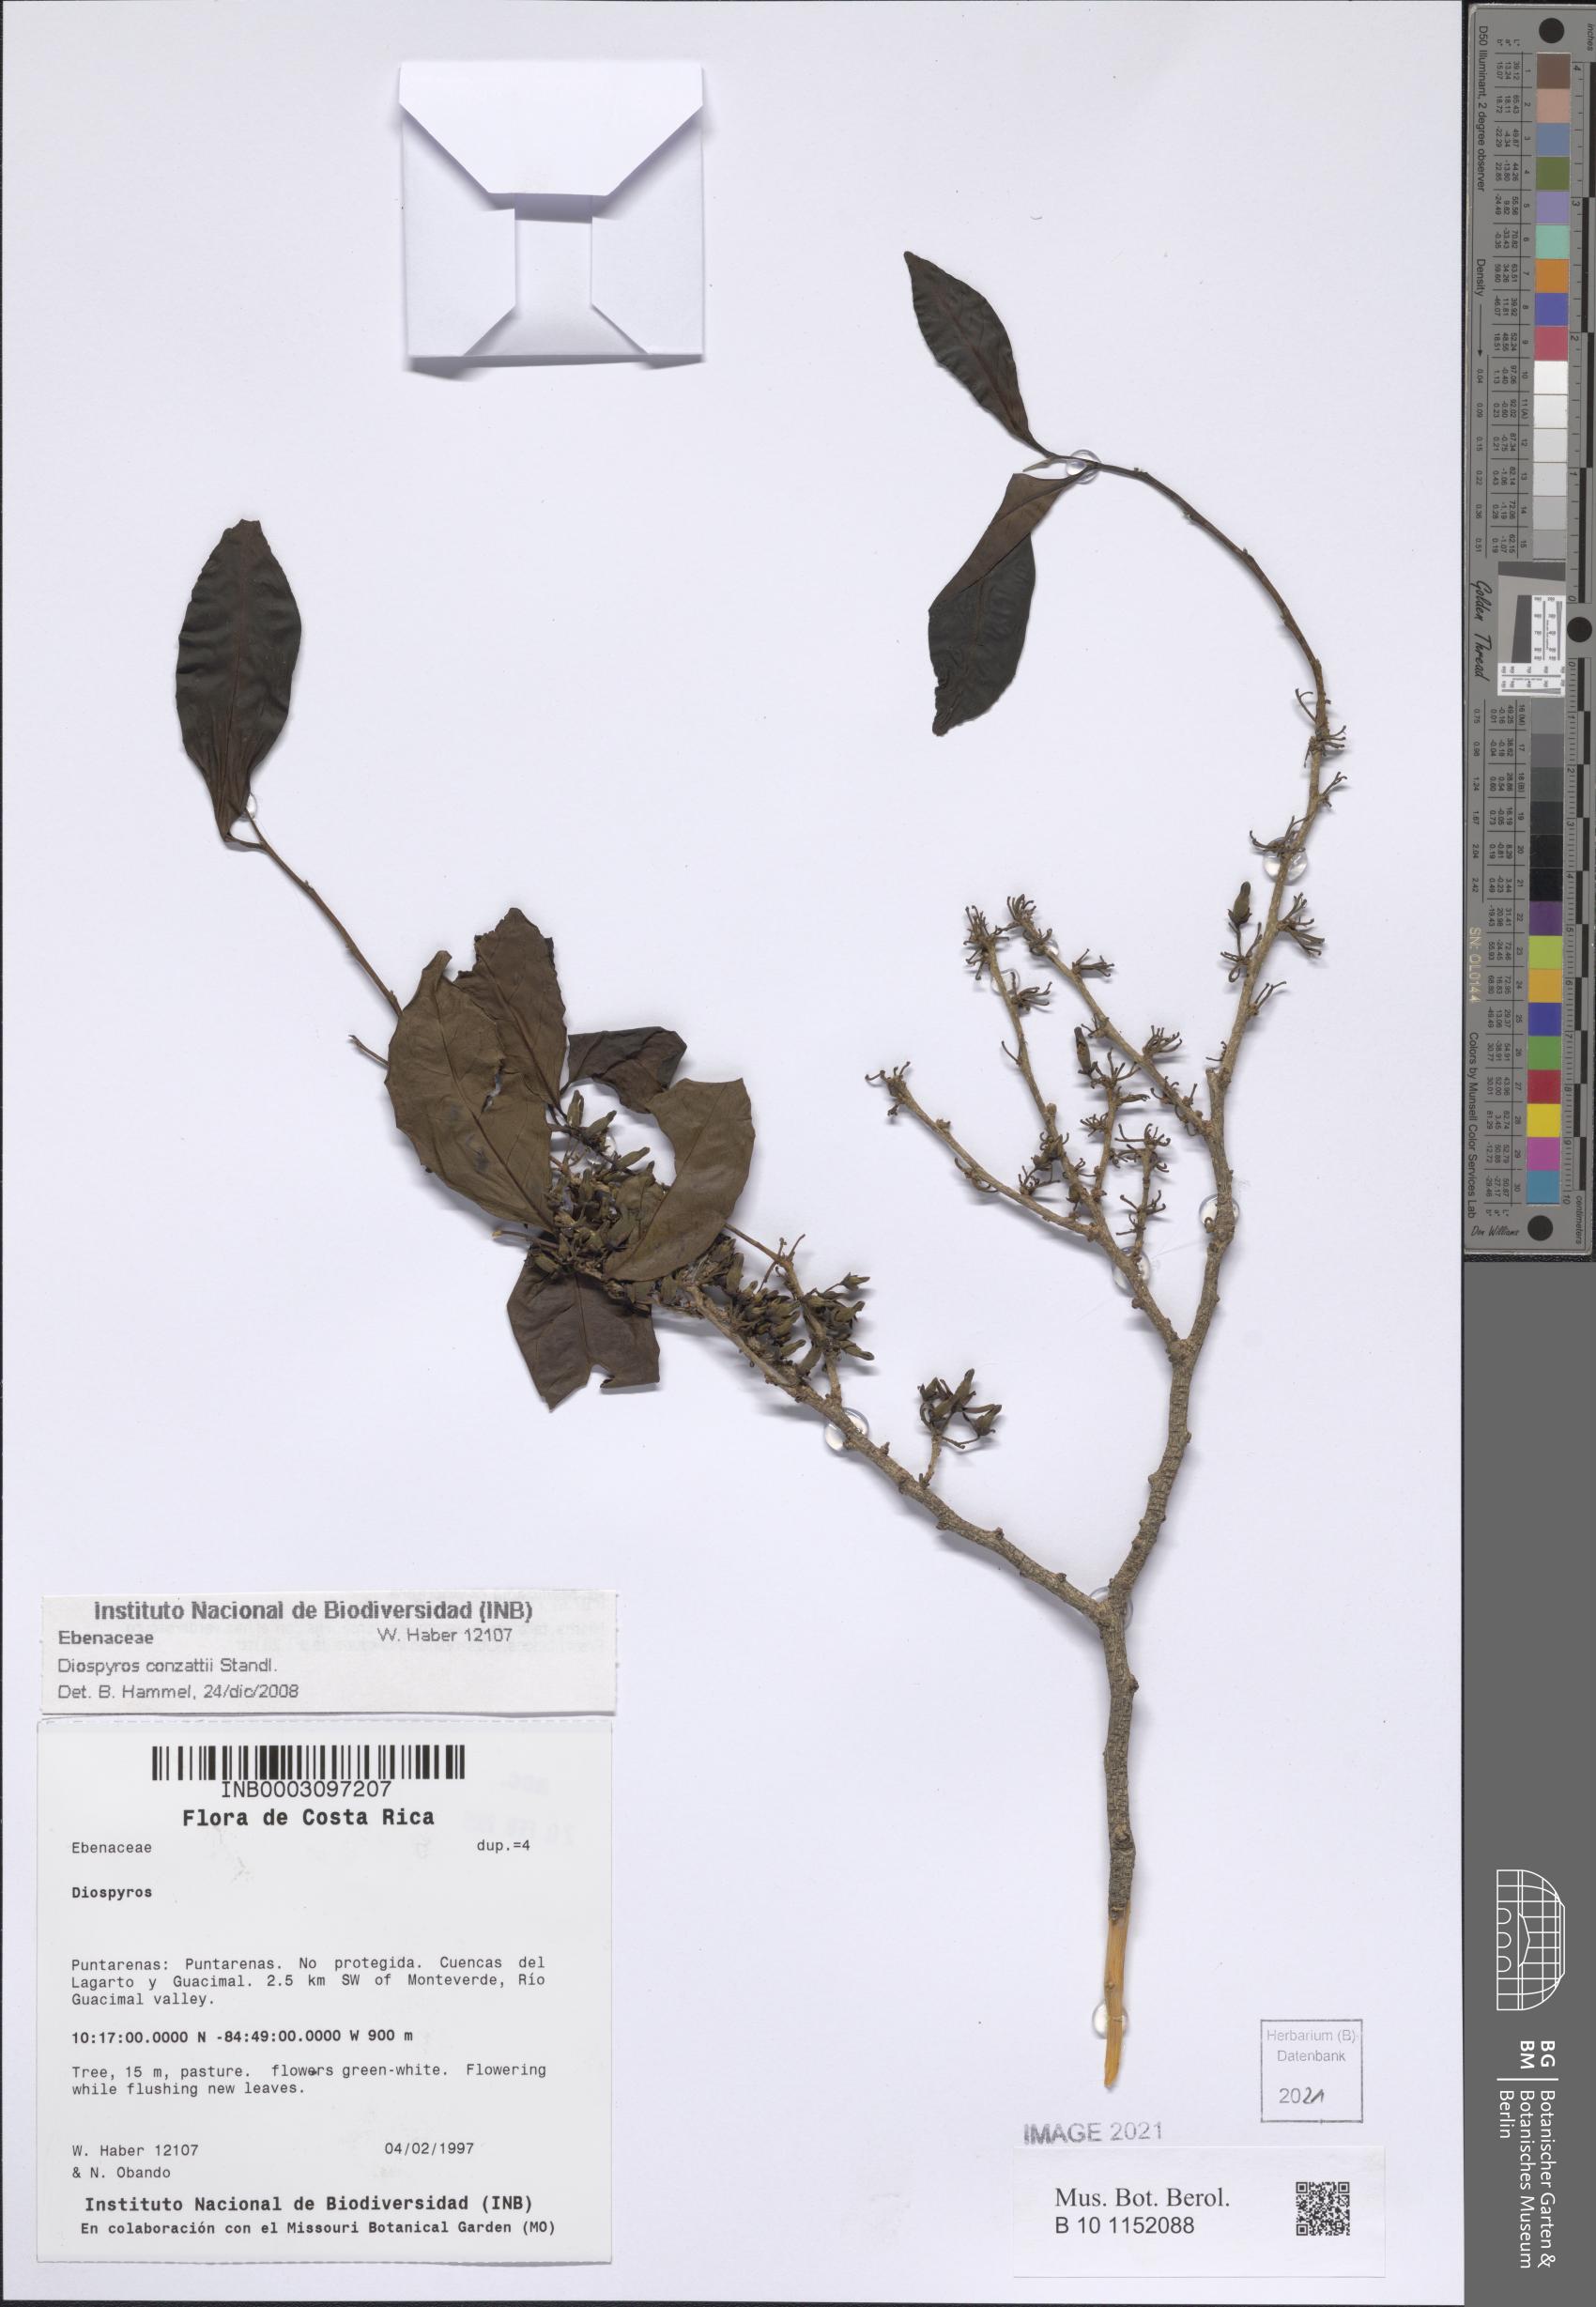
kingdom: Plantae
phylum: Tracheophyta
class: Magnoliopsida
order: Ericales
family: Ebenaceae
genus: Diospyros
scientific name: Diospyros conzattii
